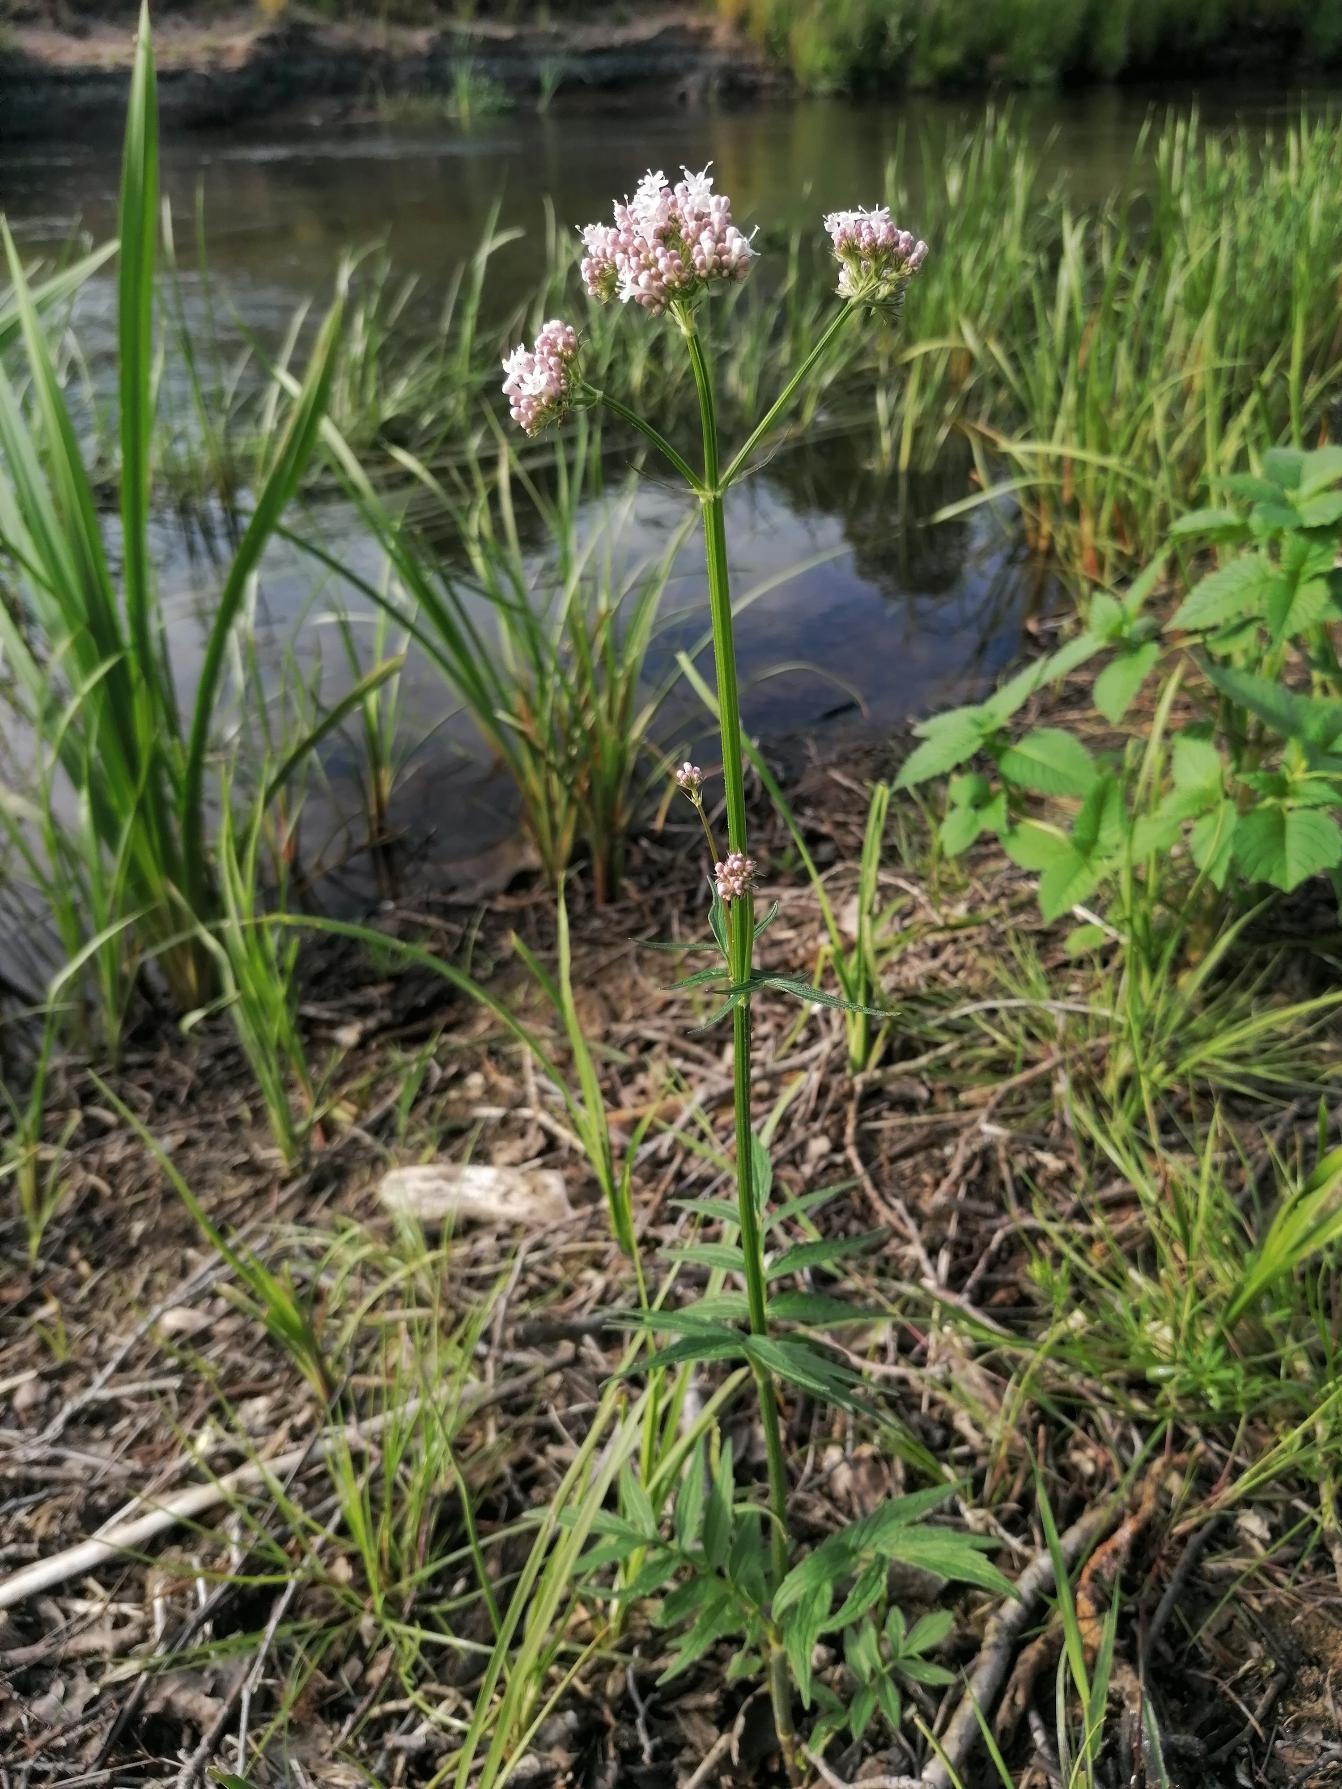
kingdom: Plantae
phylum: Tracheophyta
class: Magnoliopsida
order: Dipsacales
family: Caprifoliaceae
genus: Valeriana
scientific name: Valeriana sambucifolia
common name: Hyldebladet baldrian
